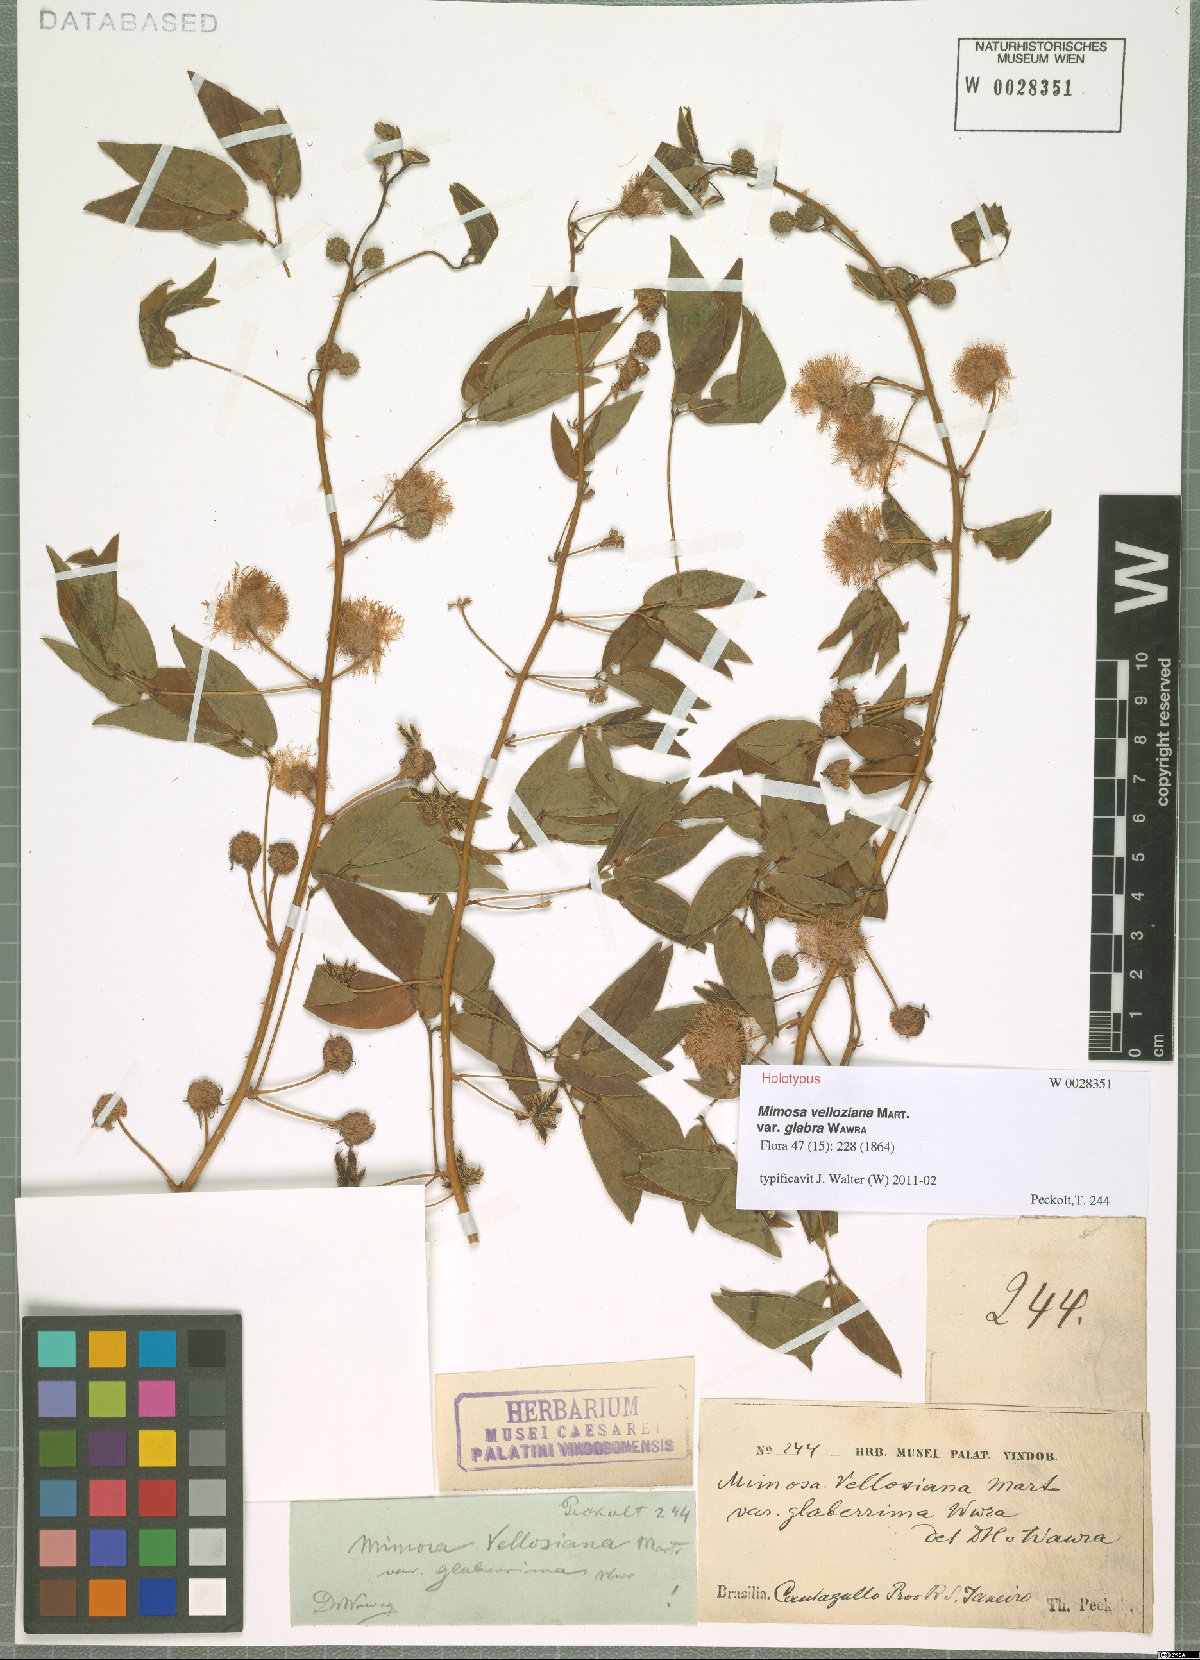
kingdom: Plantae
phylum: Tracheophyta
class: Magnoliopsida
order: Fabales
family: Fabaceae
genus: Mimosa
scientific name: Mimosa velloziana
